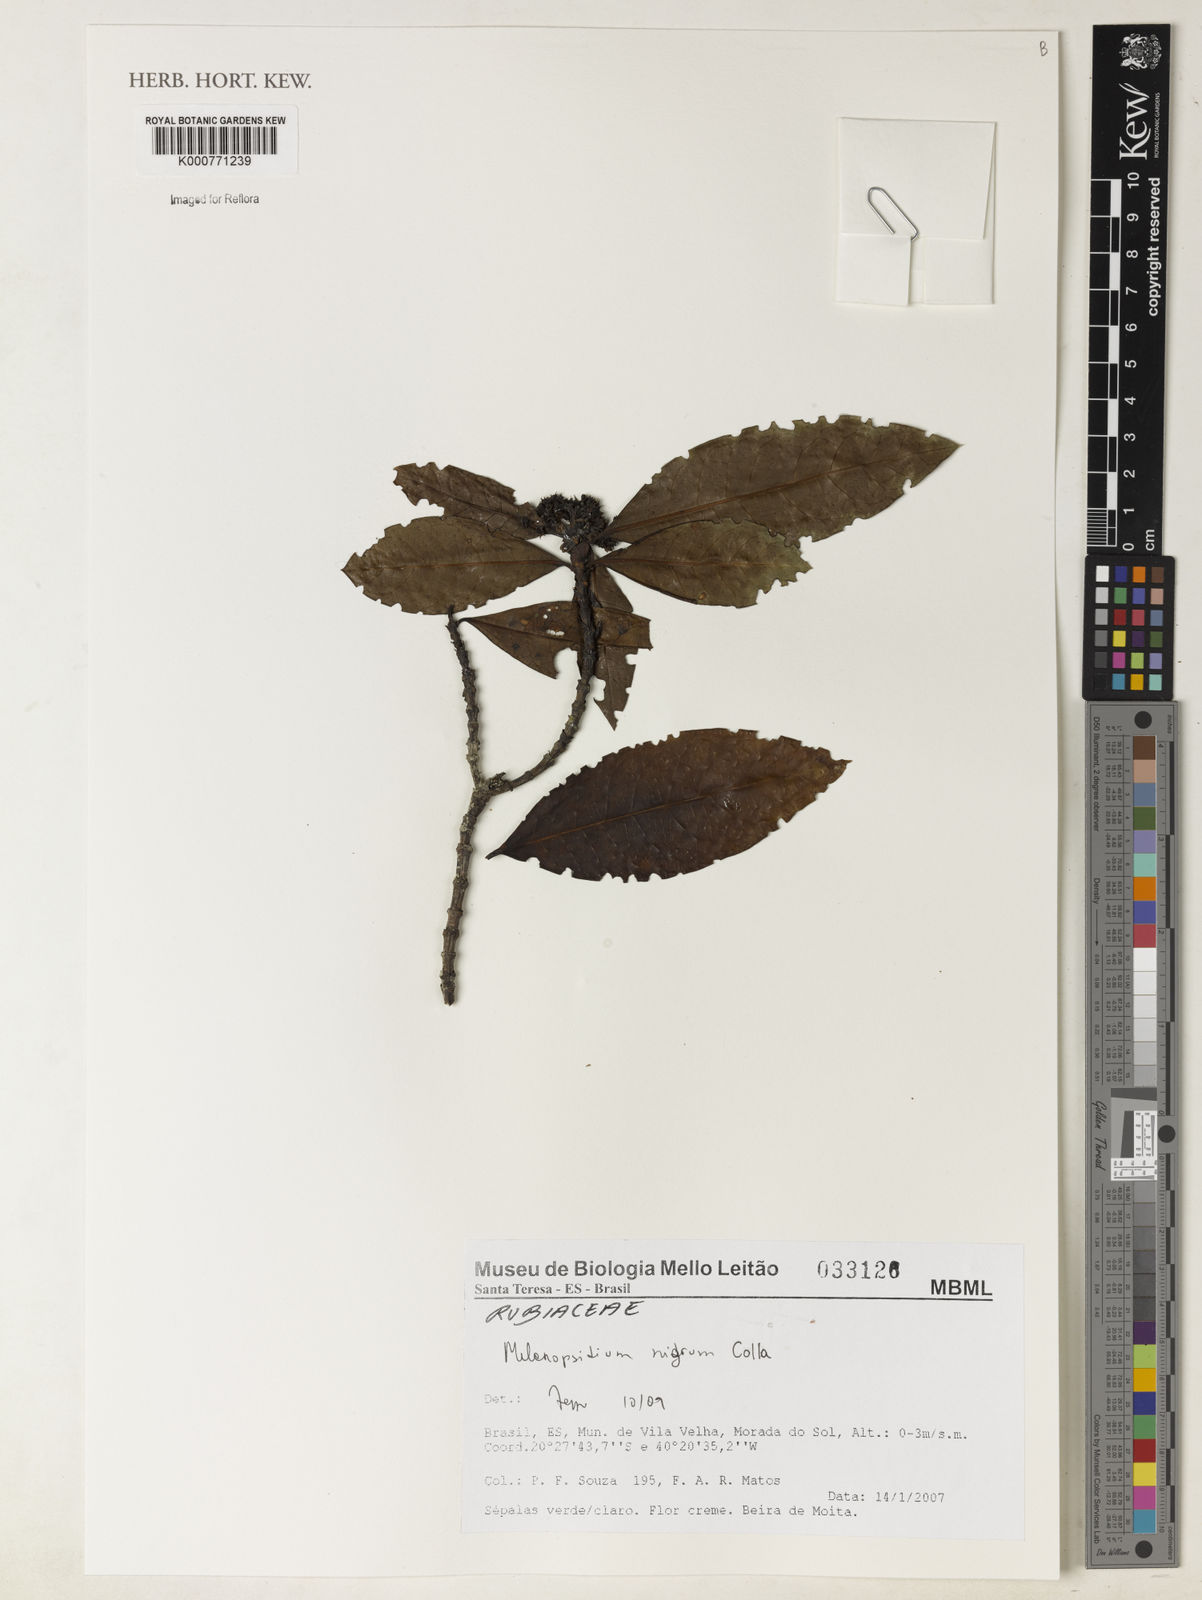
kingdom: Plantae
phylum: Tracheophyta
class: Magnoliopsida
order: Gentianales
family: Rubiaceae
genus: Melanopsidium
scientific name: Melanopsidium nigrum
